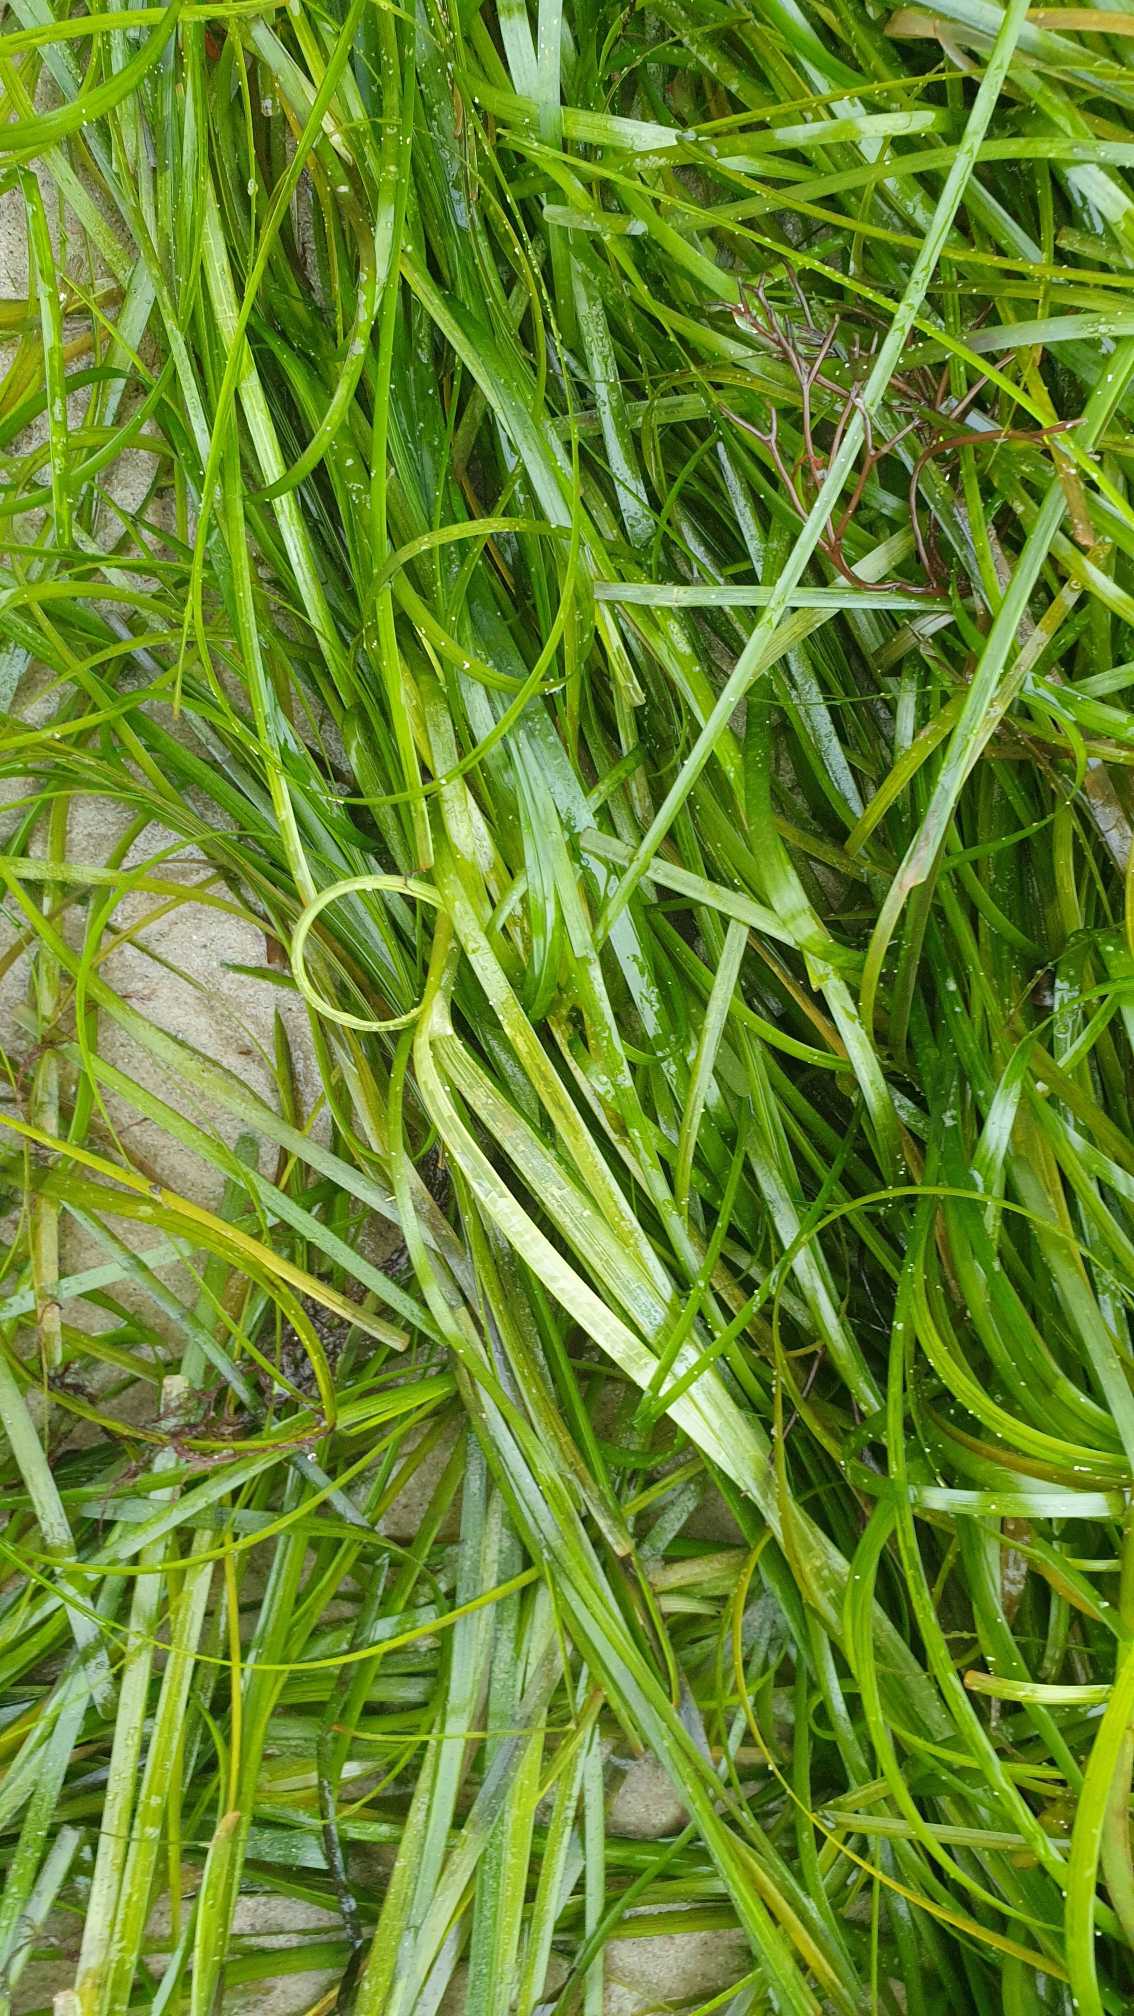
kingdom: Plantae
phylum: Tracheophyta
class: Liliopsida
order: Alismatales
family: Zosteraceae
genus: Zostera
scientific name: Zostera marina
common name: Almindelig bændeltang
